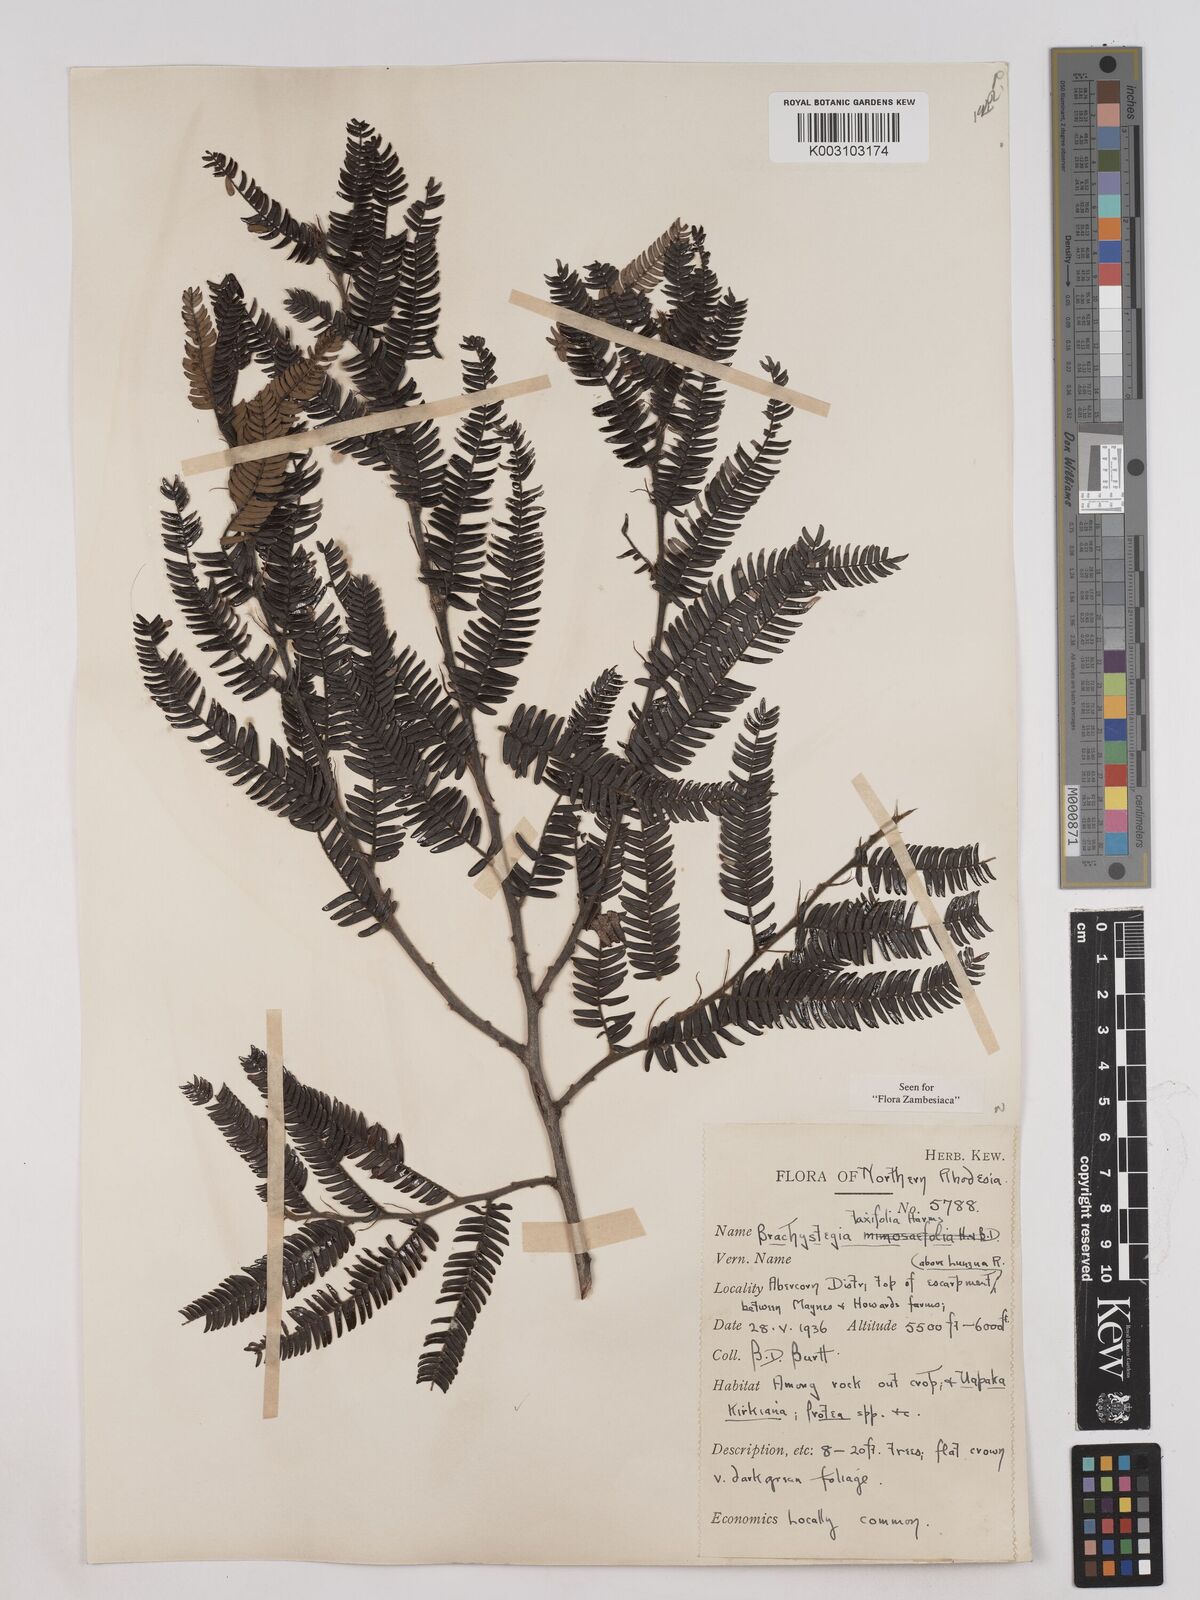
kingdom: Plantae
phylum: Tracheophyta
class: Magnoliopsida
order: Fabales
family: Fabaceae
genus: Brachystegia
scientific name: Brachystegia taxifolia
